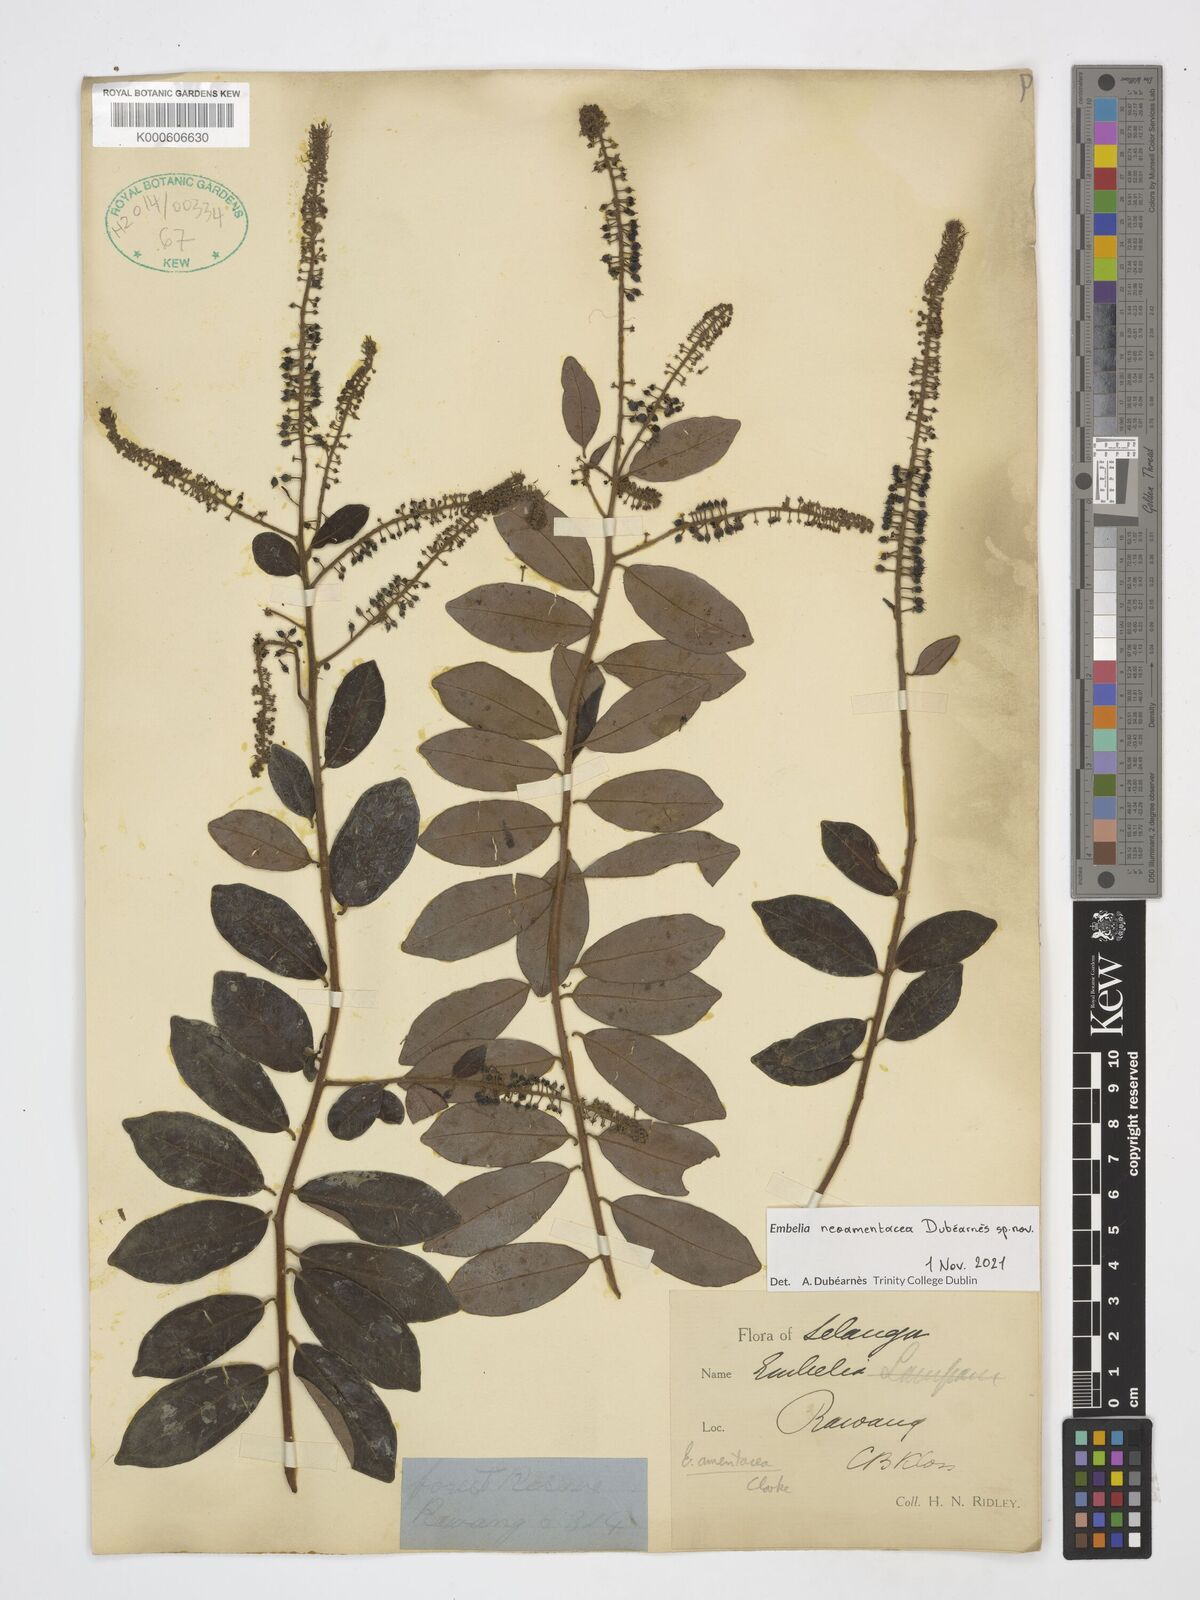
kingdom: Plantae
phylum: Tracheophyta
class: Magnoliopsida
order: Ericales
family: Primulaceae
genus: Embelia
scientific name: Embelia
